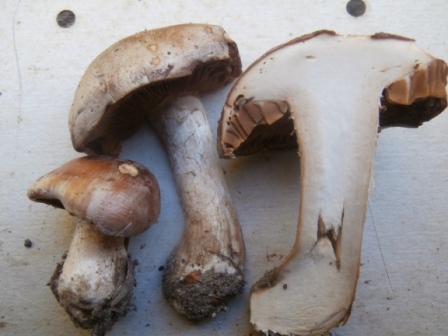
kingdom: Fungi
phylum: Basidiomycota
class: Agaricomycetes
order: Agaricales
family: Hymenogastraceae
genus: Hebeloma
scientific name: Hebeloma theobrominum
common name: rødbrun tåreblad
